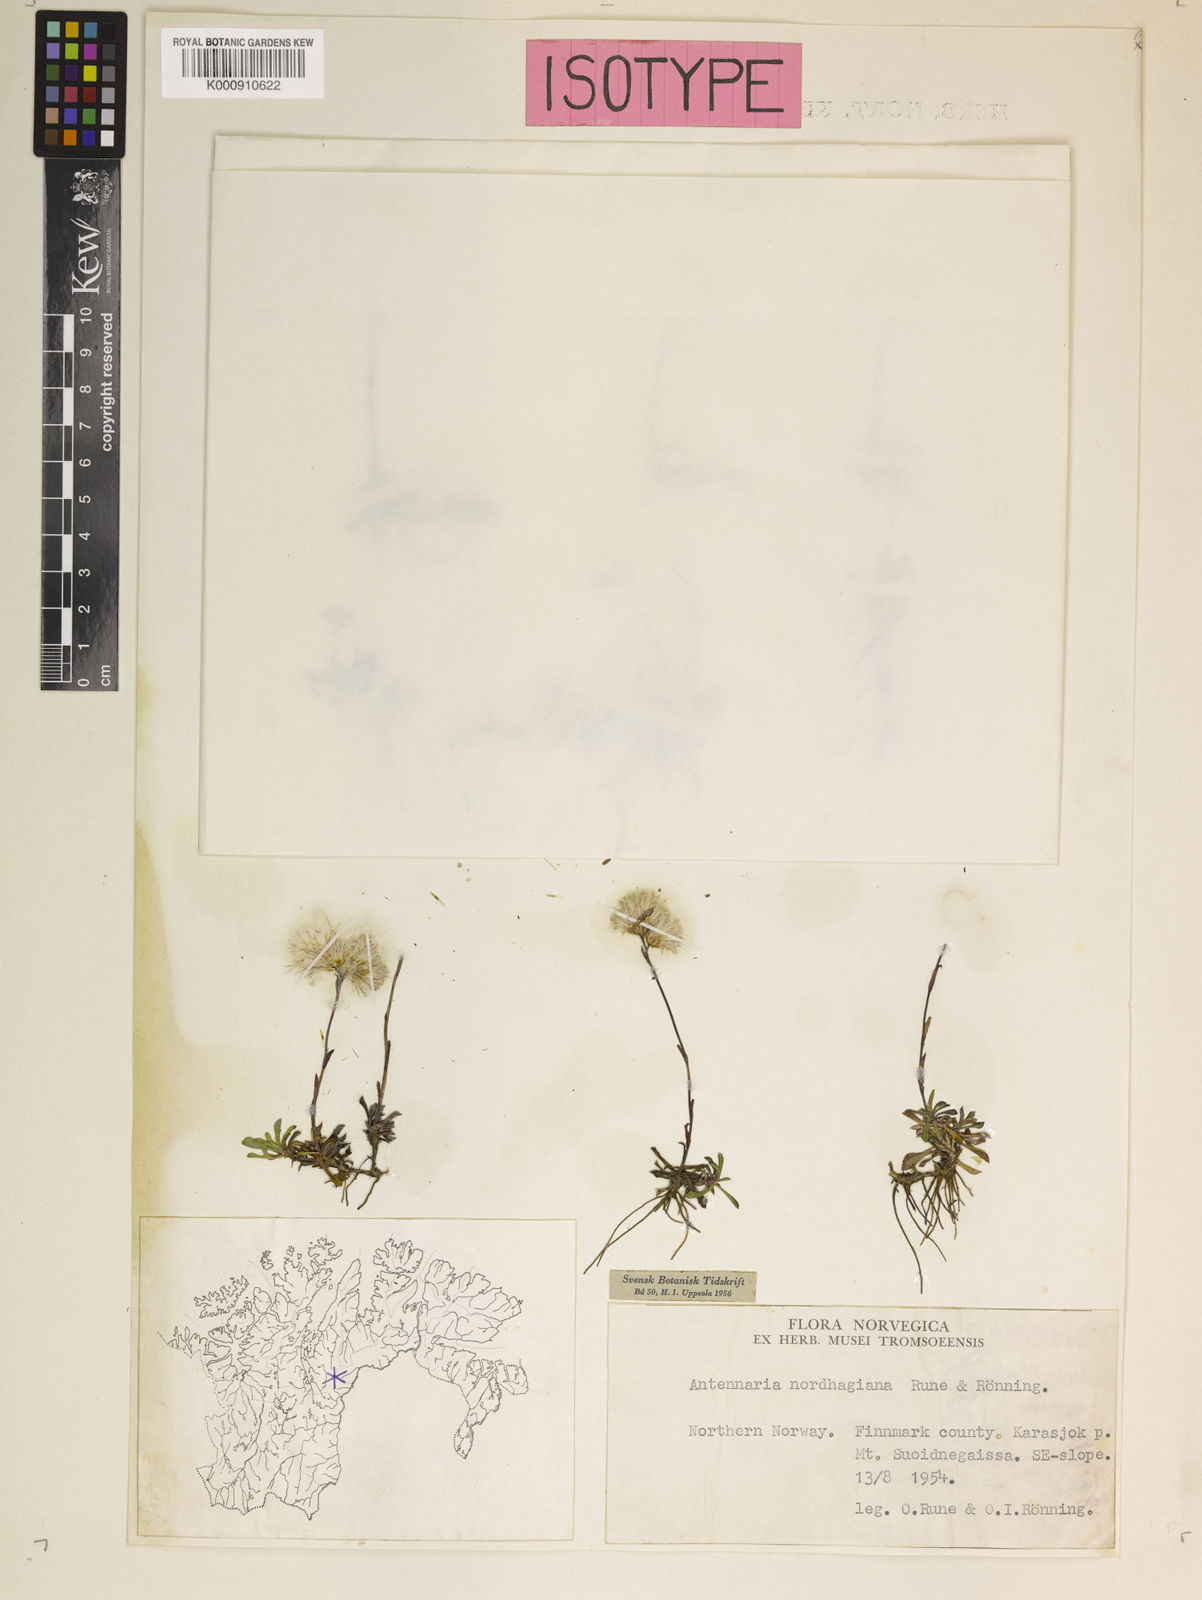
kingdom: Plantae
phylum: Tracheophyta
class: Magnoliopsida
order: Asterales
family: Asteraceae
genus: Antennaria
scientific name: Antennaria
